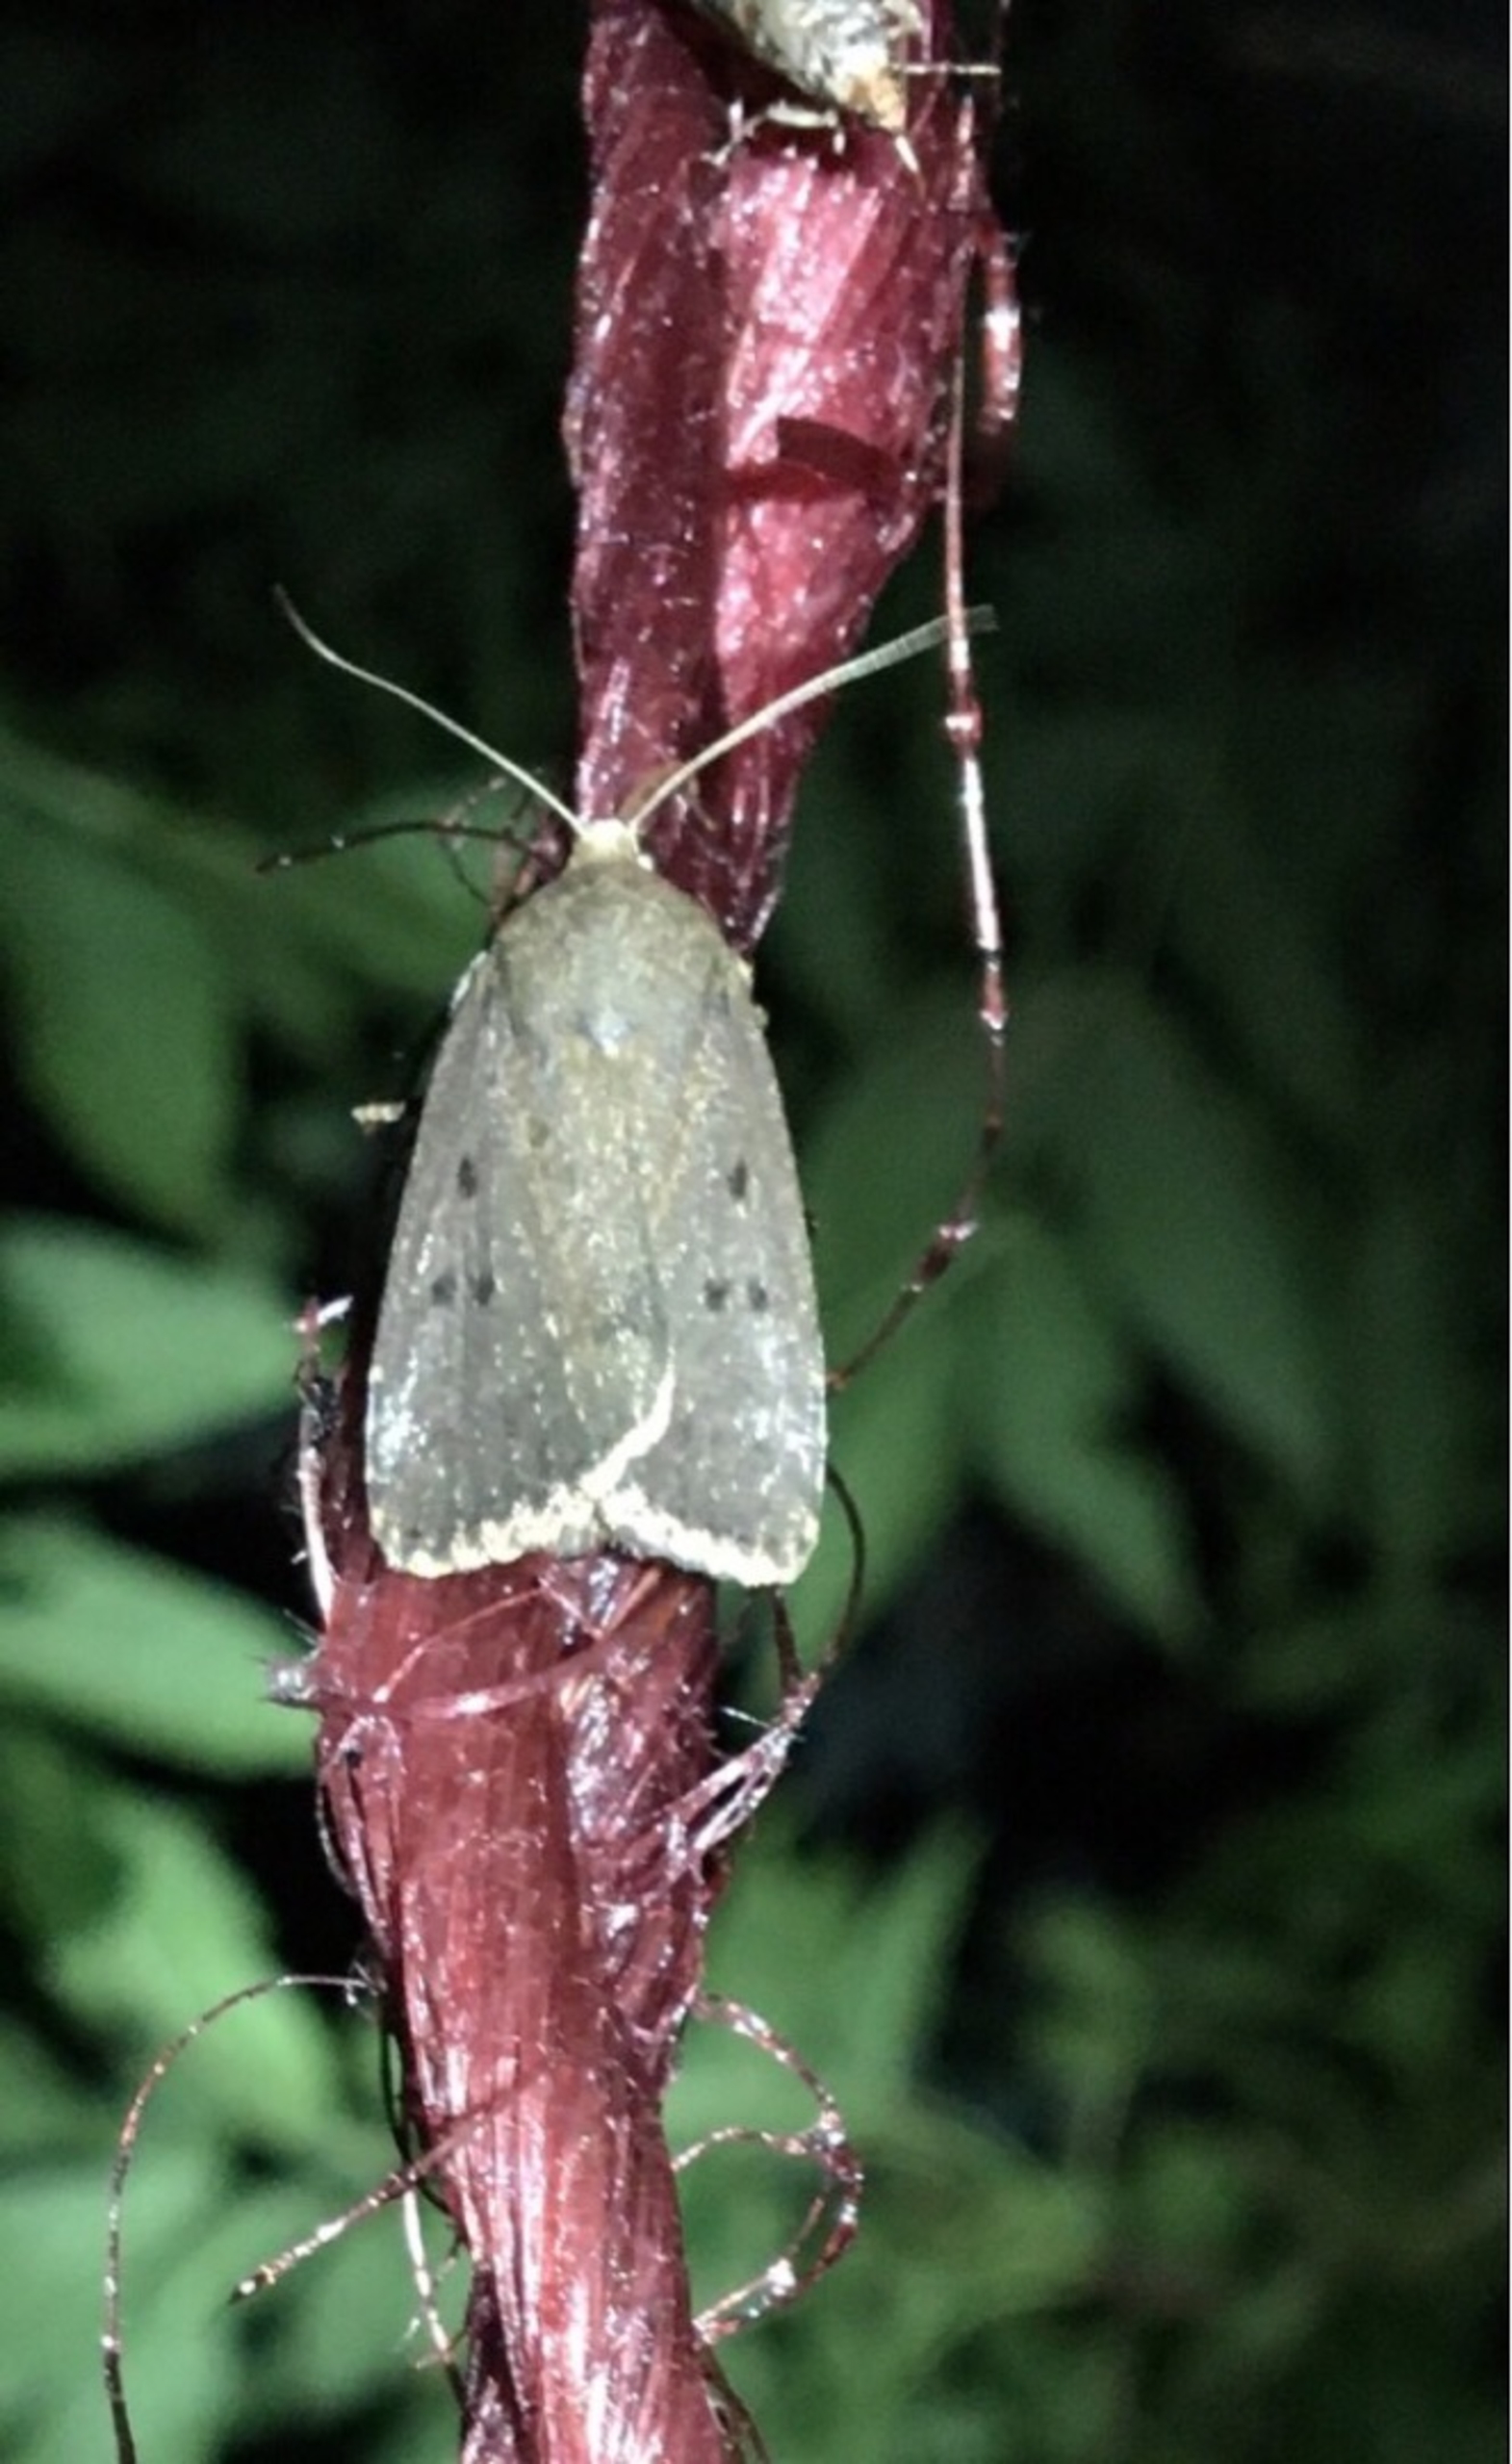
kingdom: Animalia
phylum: Arthropoda
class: Insecta
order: Lepidoptera
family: Noctuidae
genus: Amphipyra
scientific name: Amphipyra tragopoginis
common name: Blyantsugle
